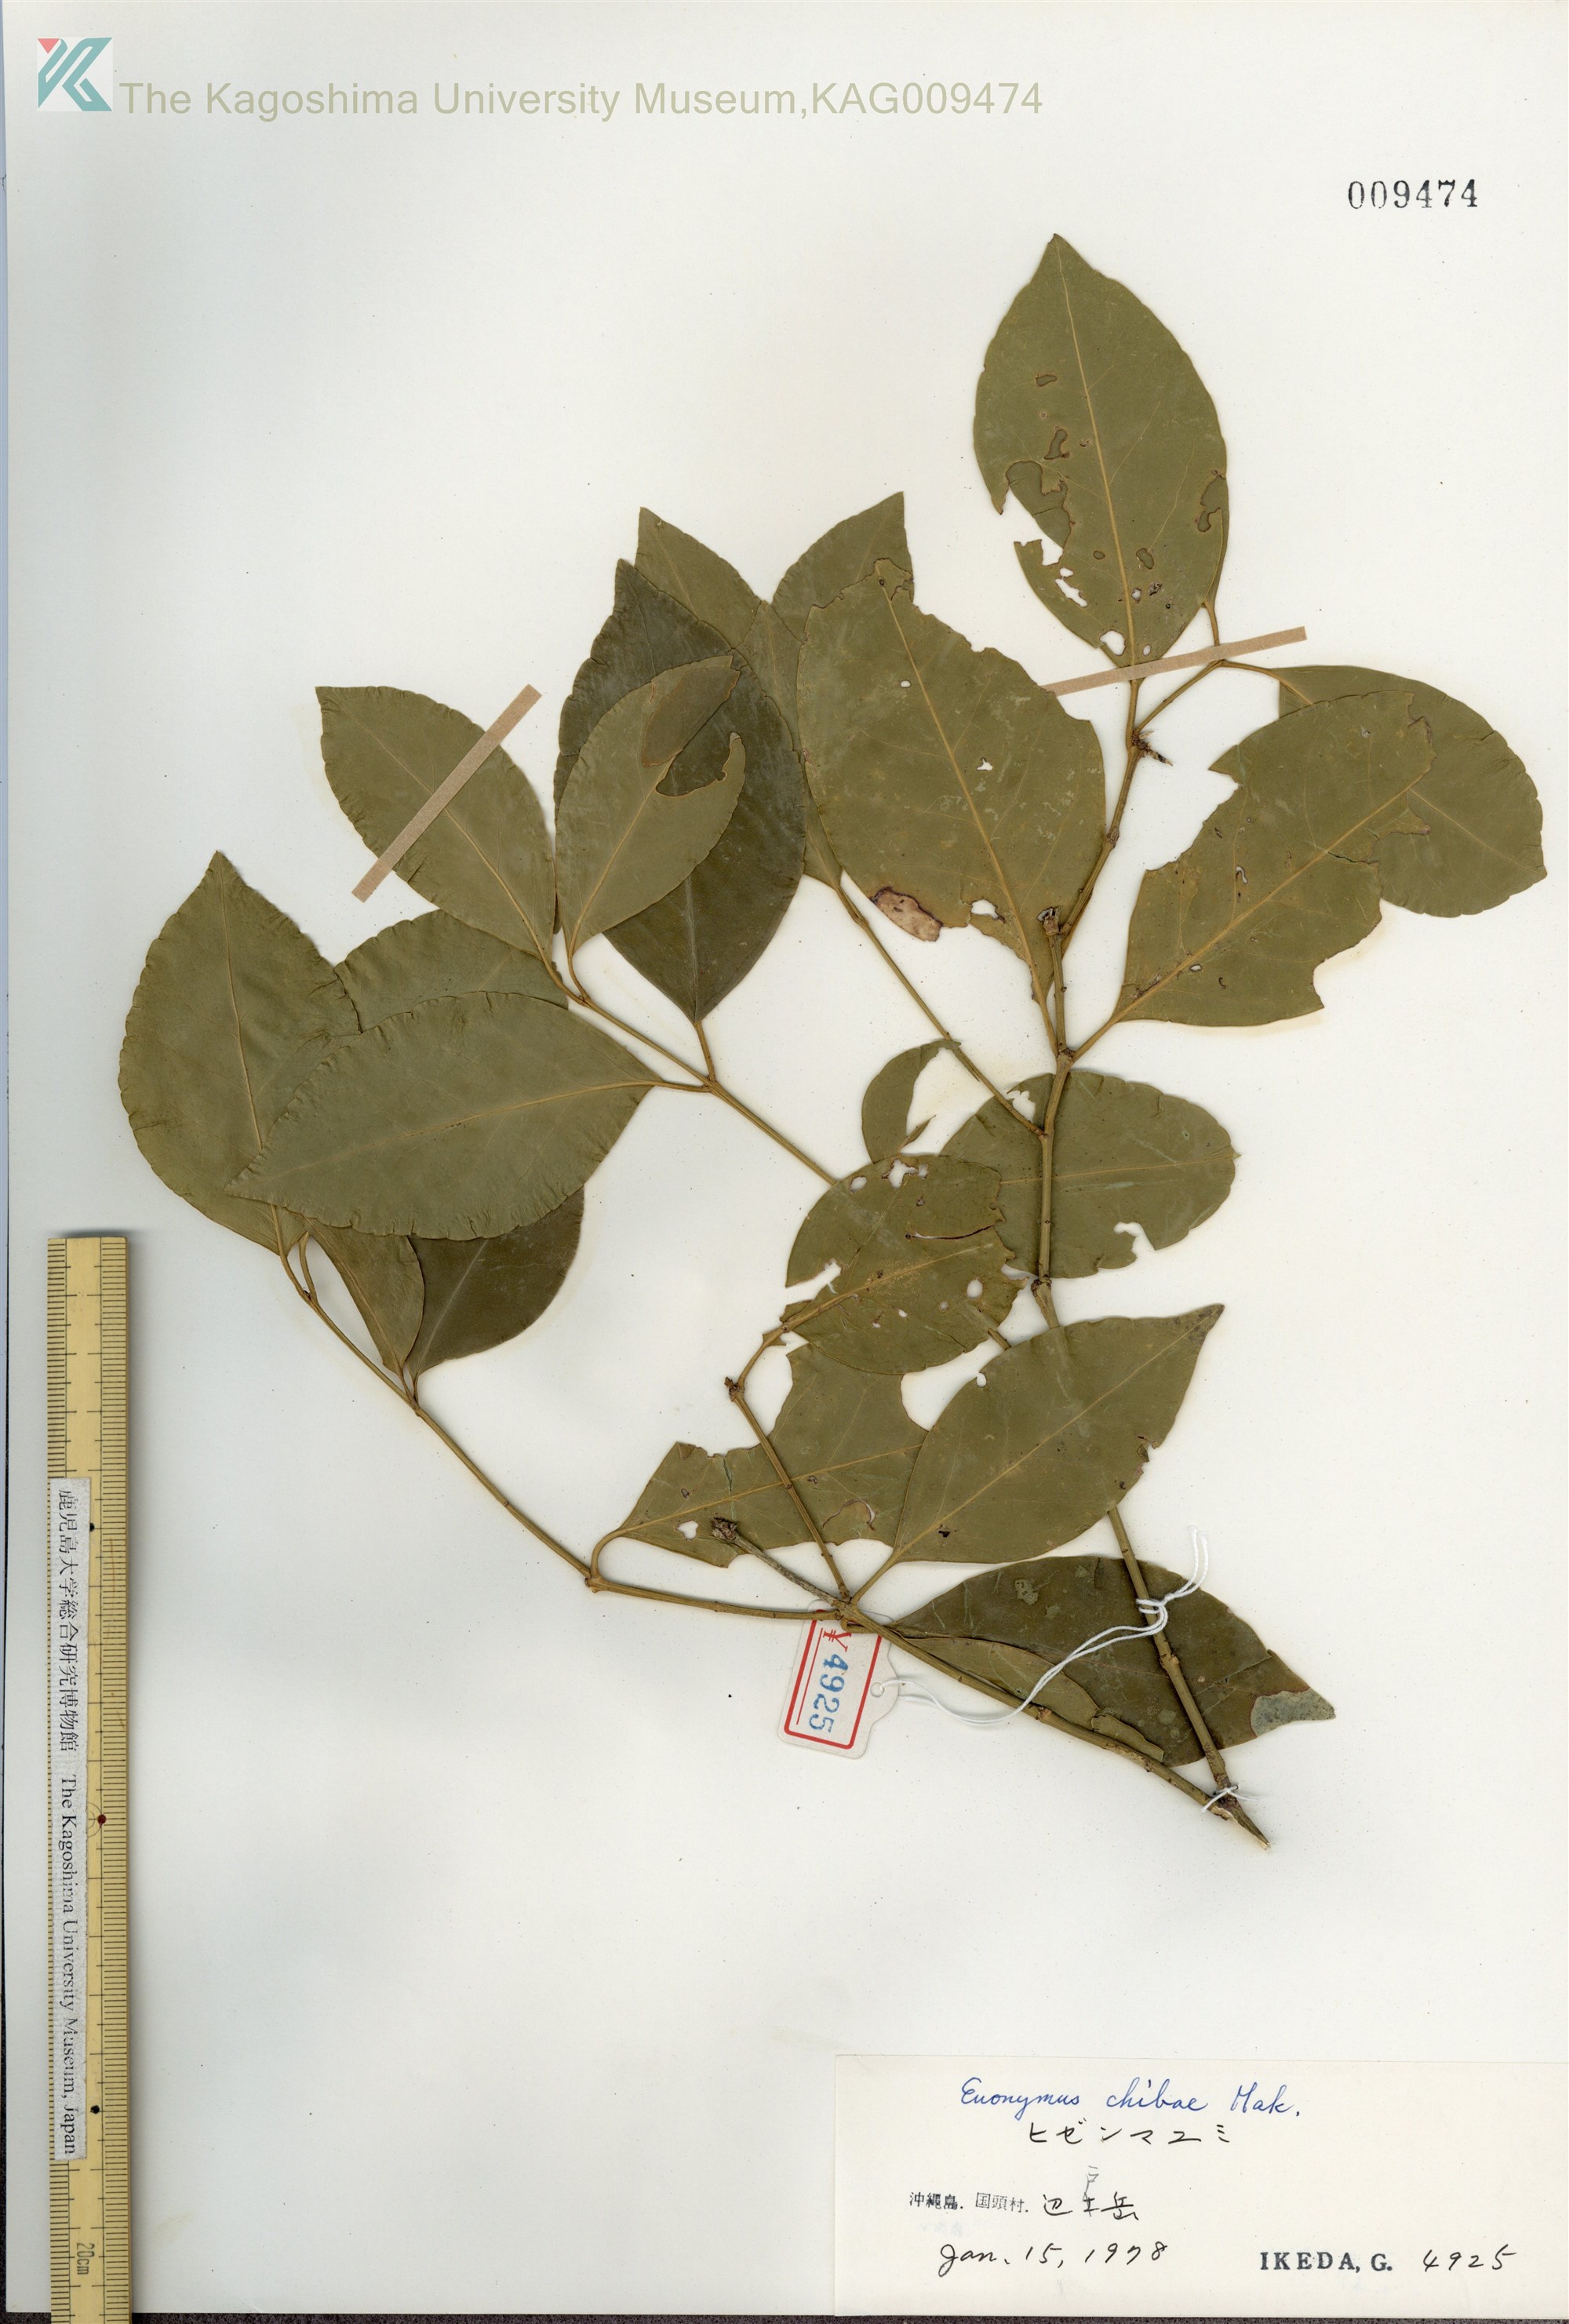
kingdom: Plantae
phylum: Tracheophyta
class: Magnoliopsida
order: Celastrales
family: Celastraceae
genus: Euonymus
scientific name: Euonymus chibae
